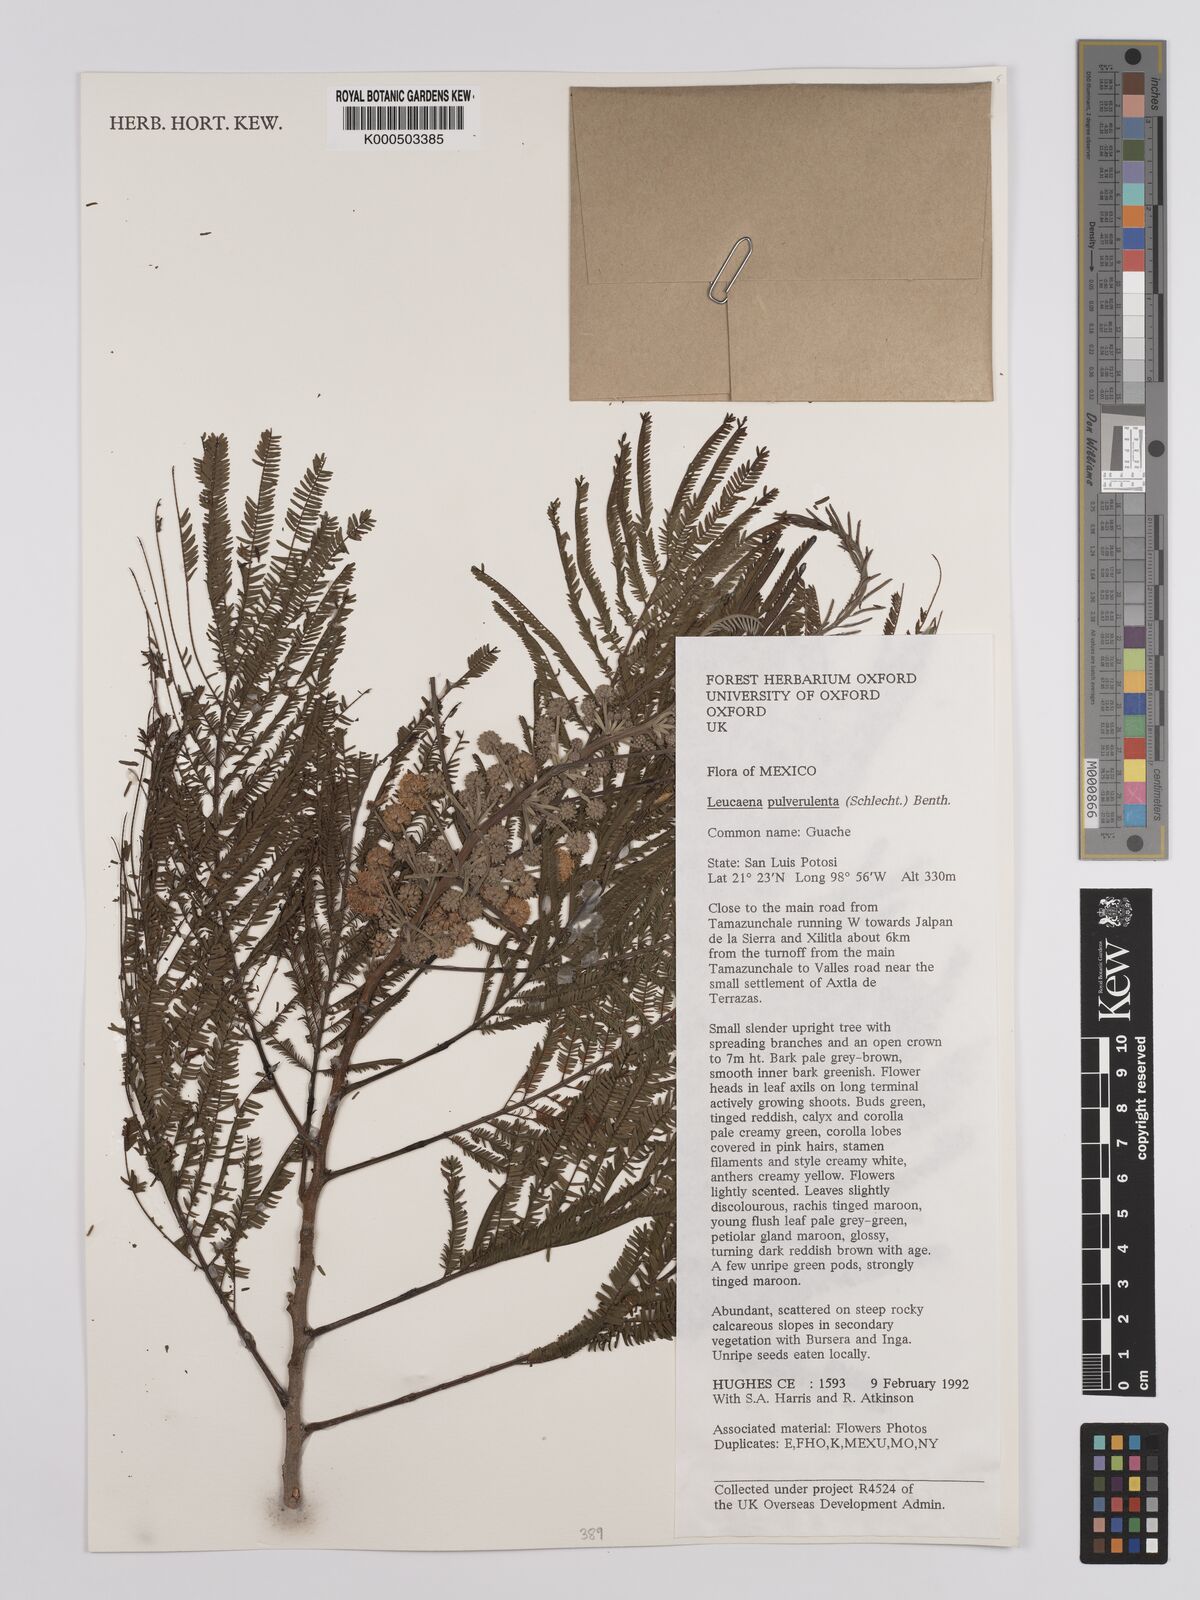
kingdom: Plantae
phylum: Tracheophyta
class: Magnoliopsida
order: Fabales
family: Fabaceae
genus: Leucaena
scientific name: Leucaena pulverulenta
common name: Great leadtree
